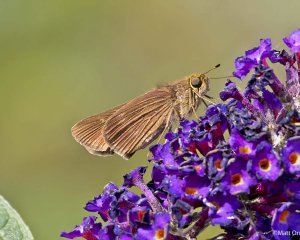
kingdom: Animalia
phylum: Arthropoda
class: Insecta
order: Lepidoptera
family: Hesperiidae
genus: Panoquina
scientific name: Panoquina ocola
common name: Ocola Skipper
